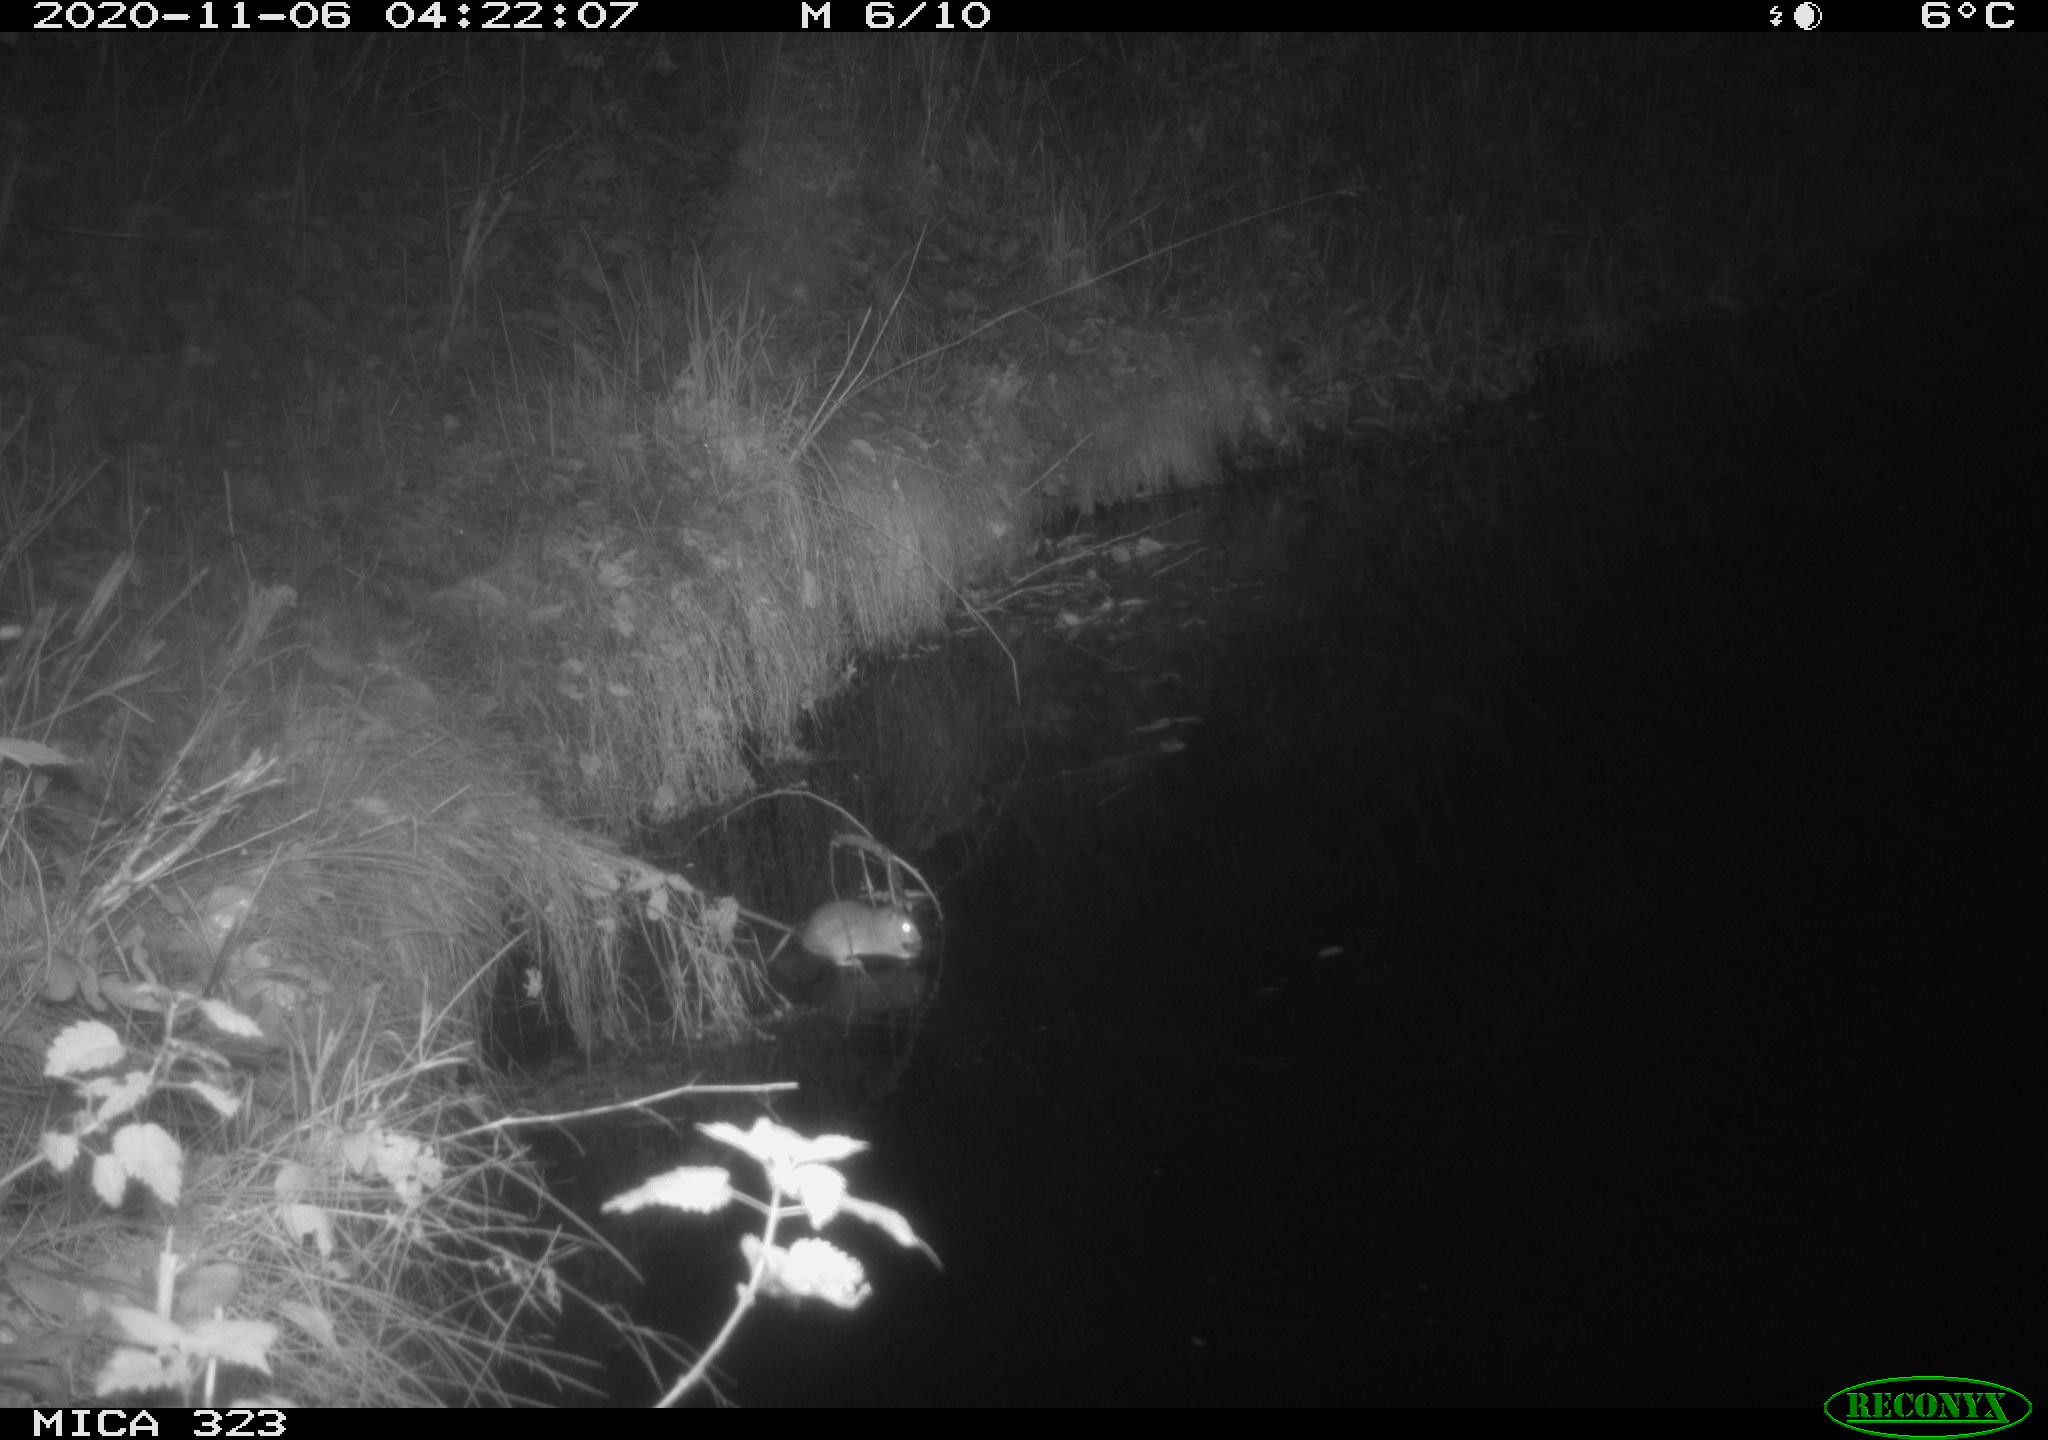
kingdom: Animalia
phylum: Chordata
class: Mammalia
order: Rodentia
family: Muridae
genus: Rattus
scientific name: Rattus norvegicus
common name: Brown rat
